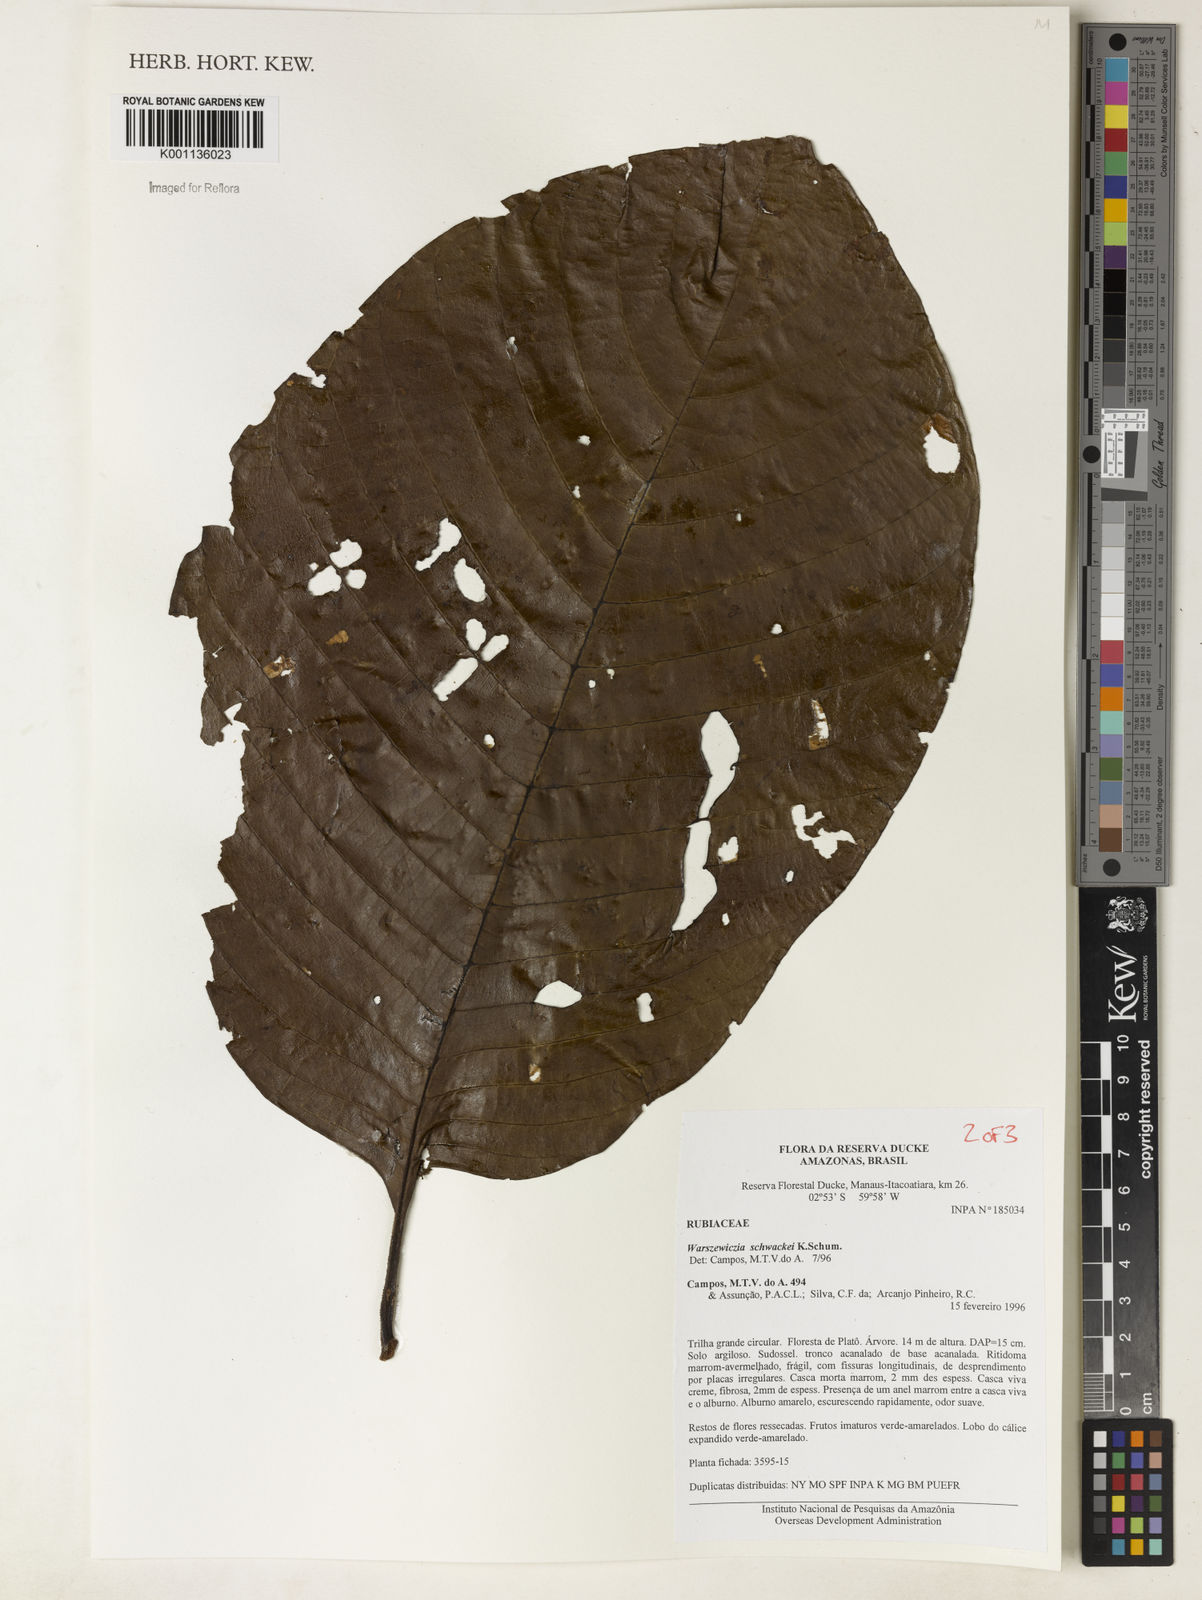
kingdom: Plantae
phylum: Tracheophyta
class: Magnoliopsida
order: Gentianales
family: Rubiaceae
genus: Warszewiczia
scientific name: Warszewiczia schwackei
